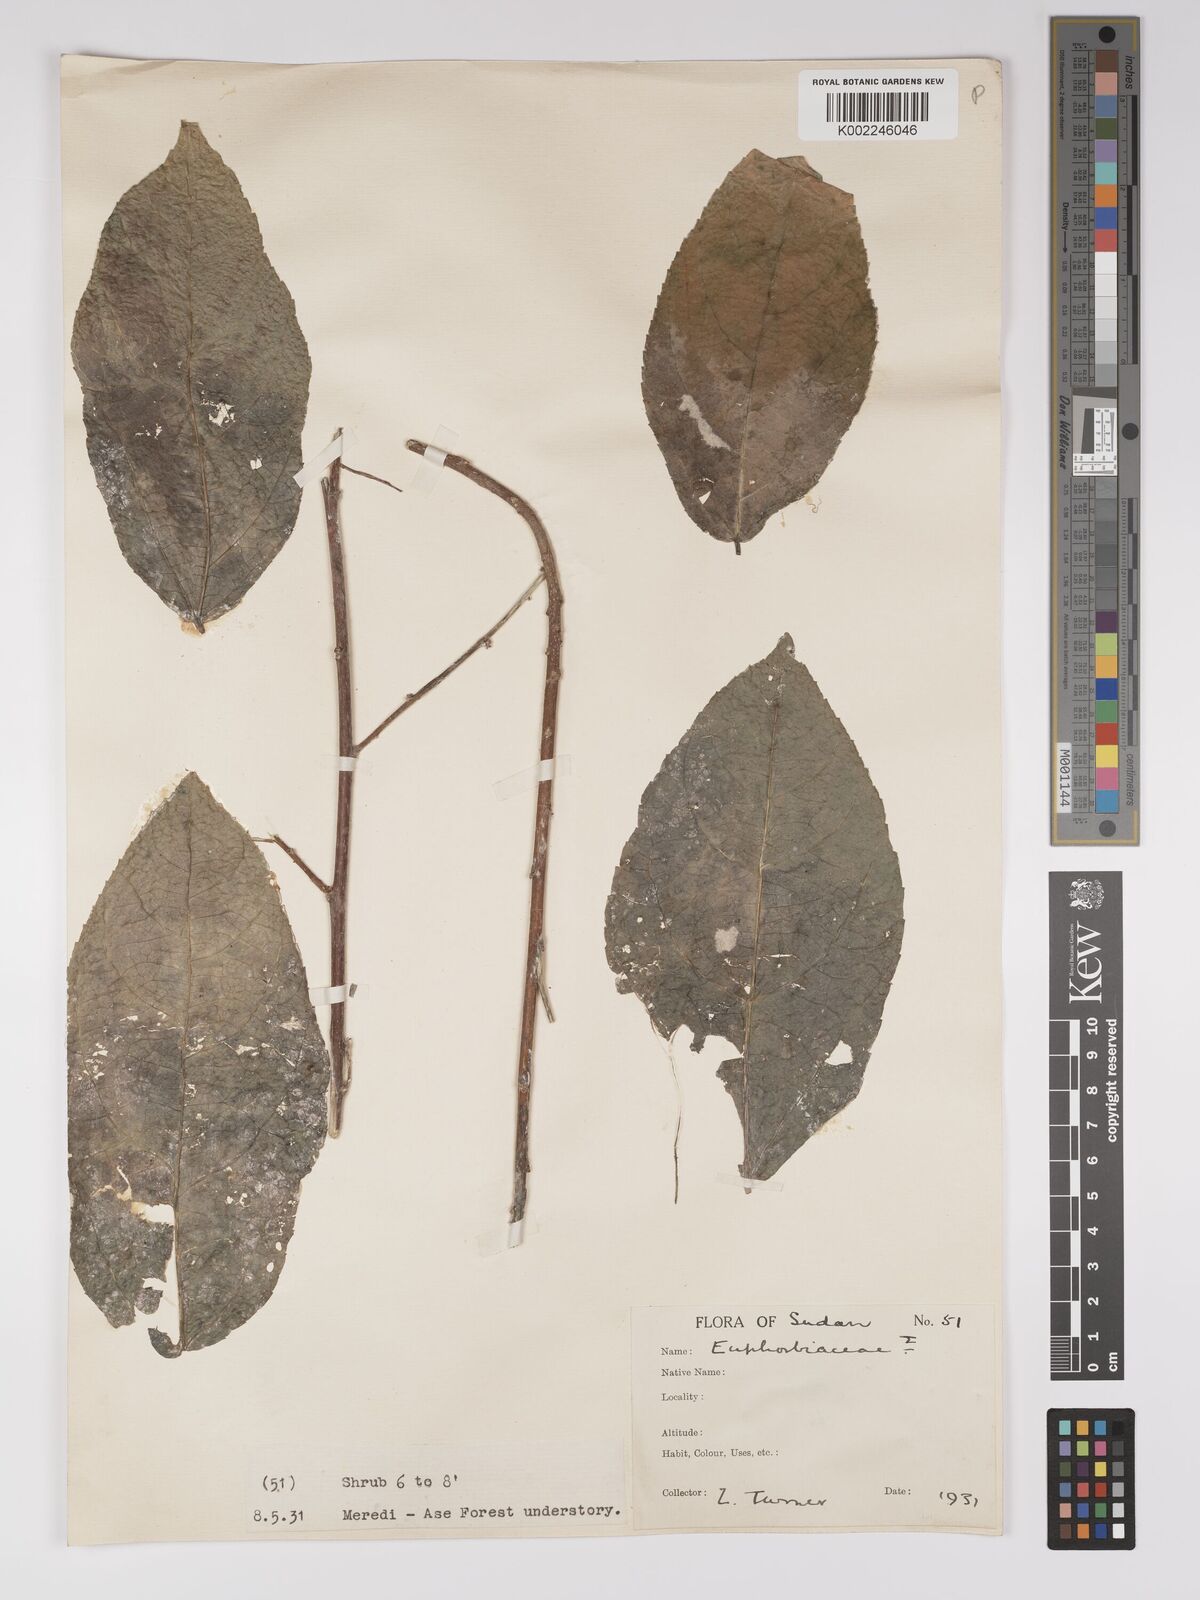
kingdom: Plantae
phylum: Tracheophyta
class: Magnoliopsida
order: Malpighiales
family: Euphorbiaceae
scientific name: Euphorbiaceae
